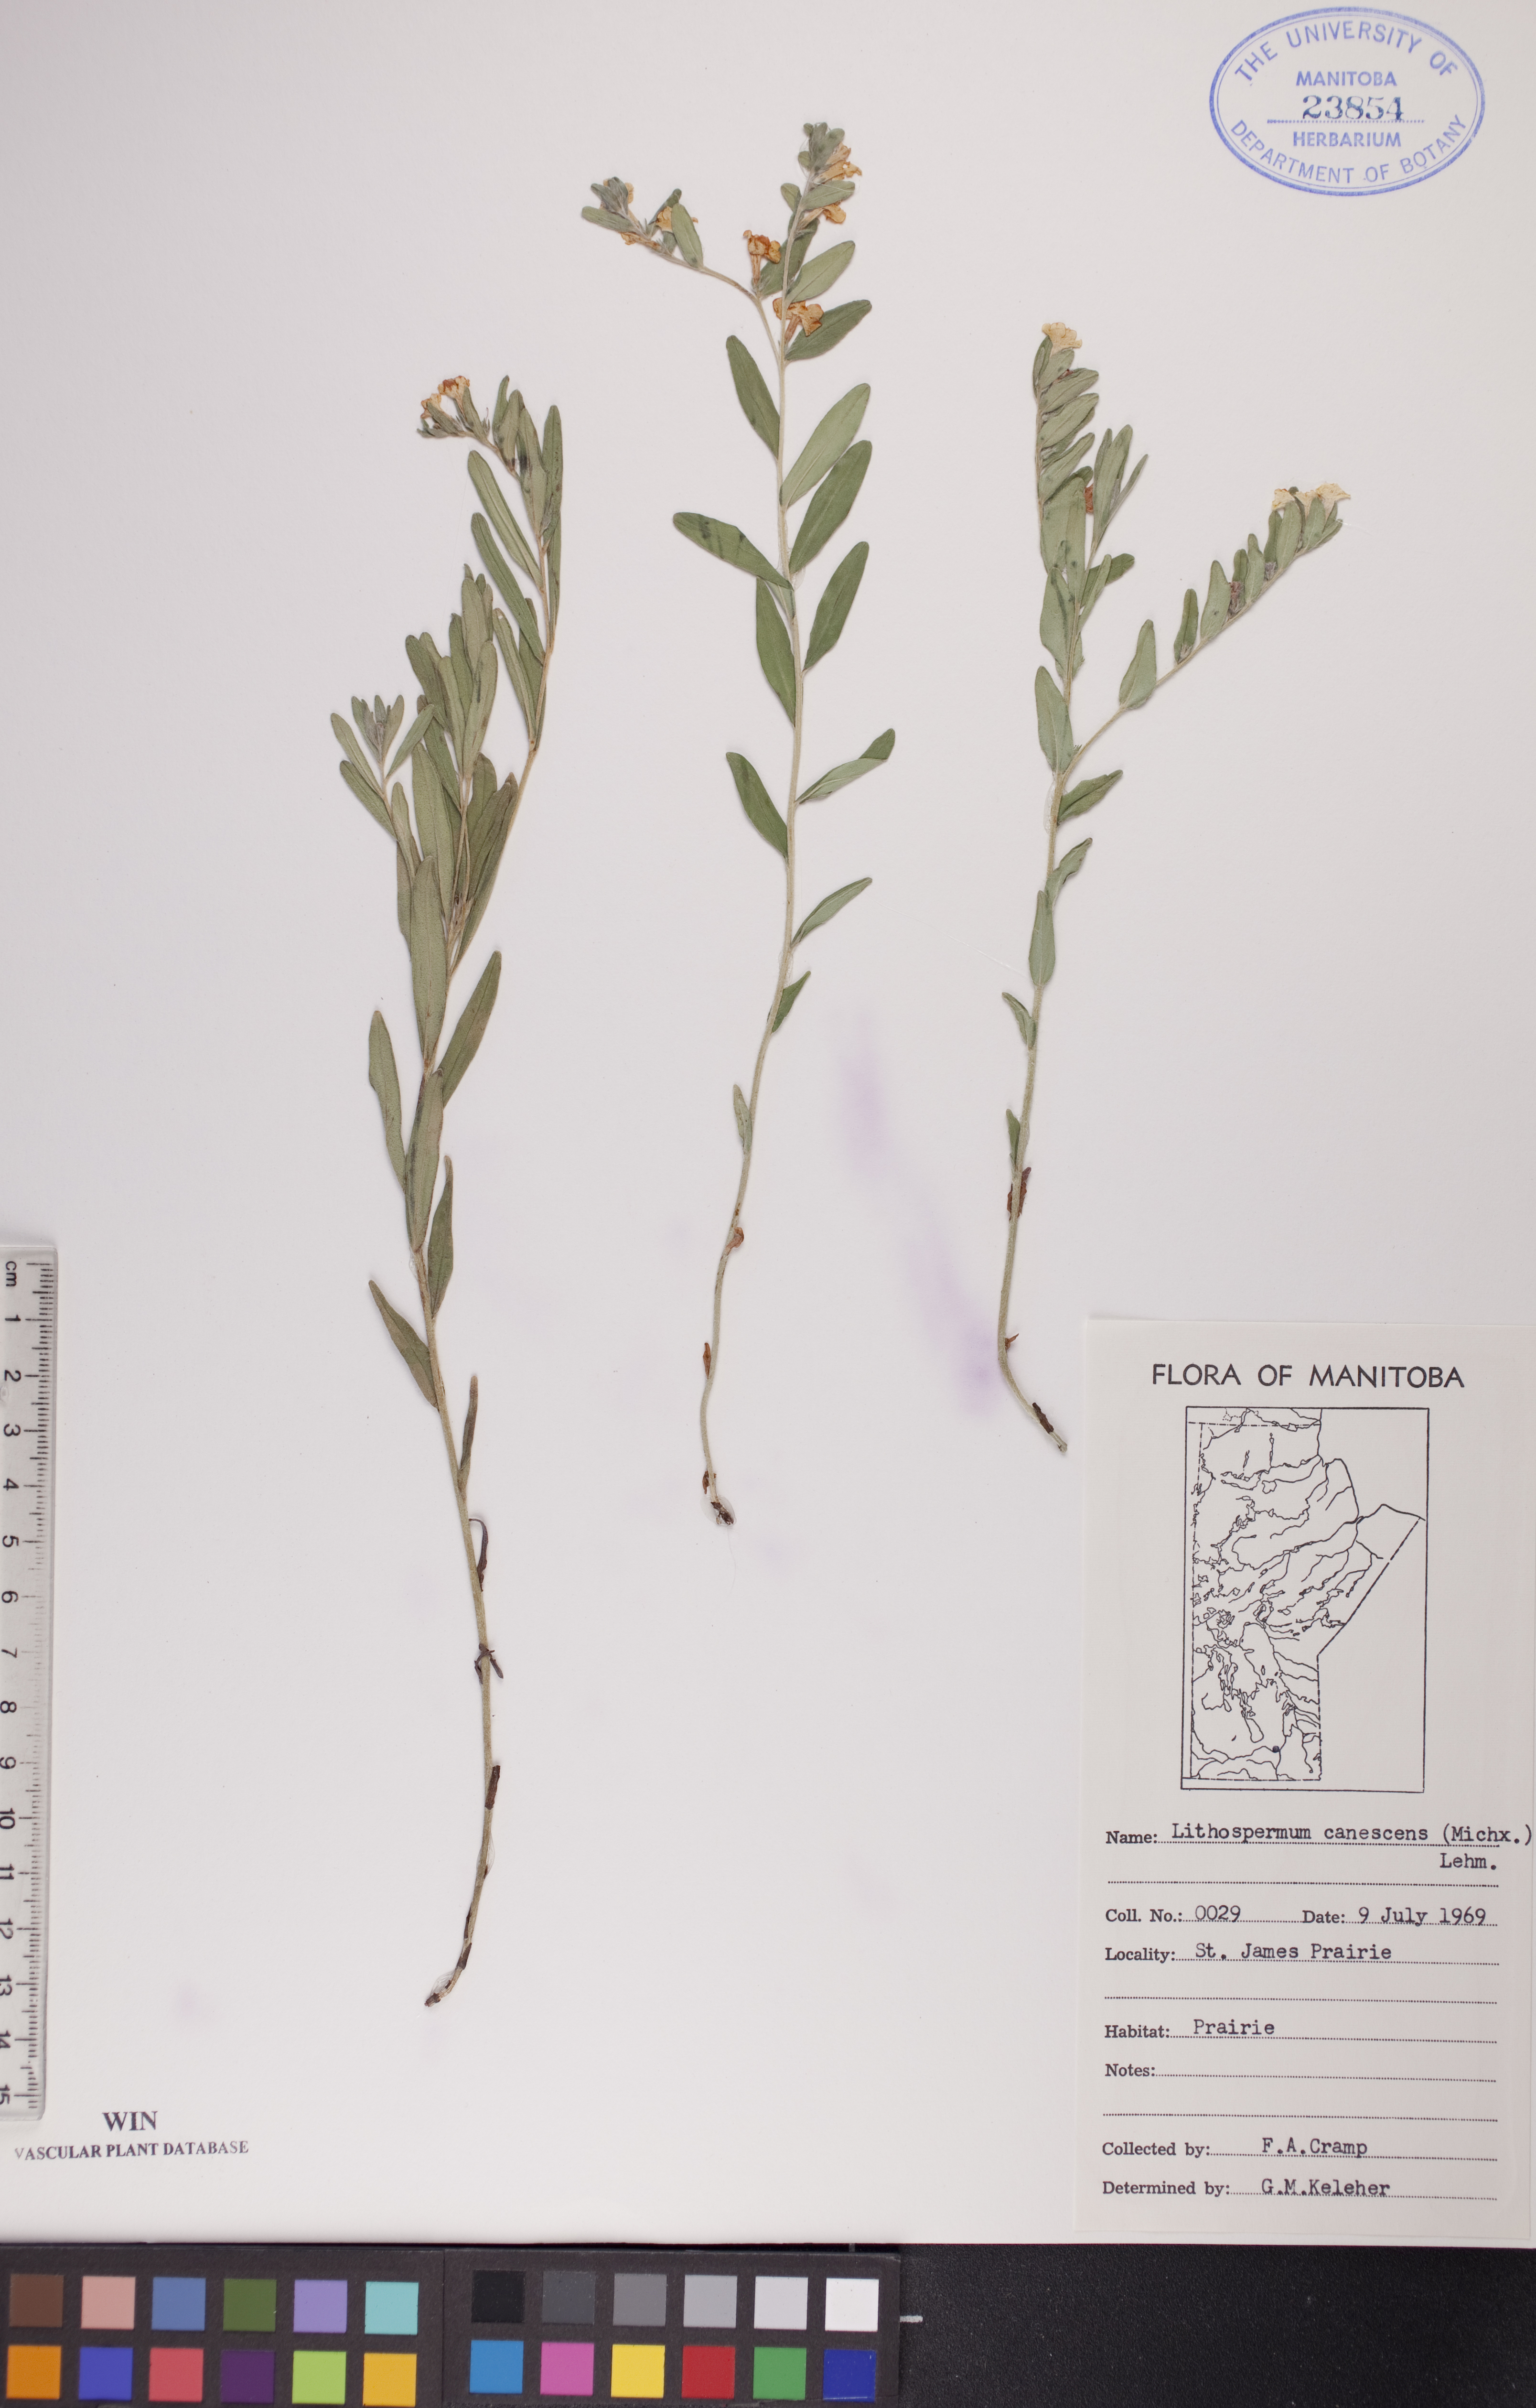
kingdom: Plantae
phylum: Tracheophyta
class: Magnoliopsida
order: Boraginales
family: Boraginaceae
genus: Lithospermum
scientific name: Lithospermum canescens
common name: Hoary puccoon
